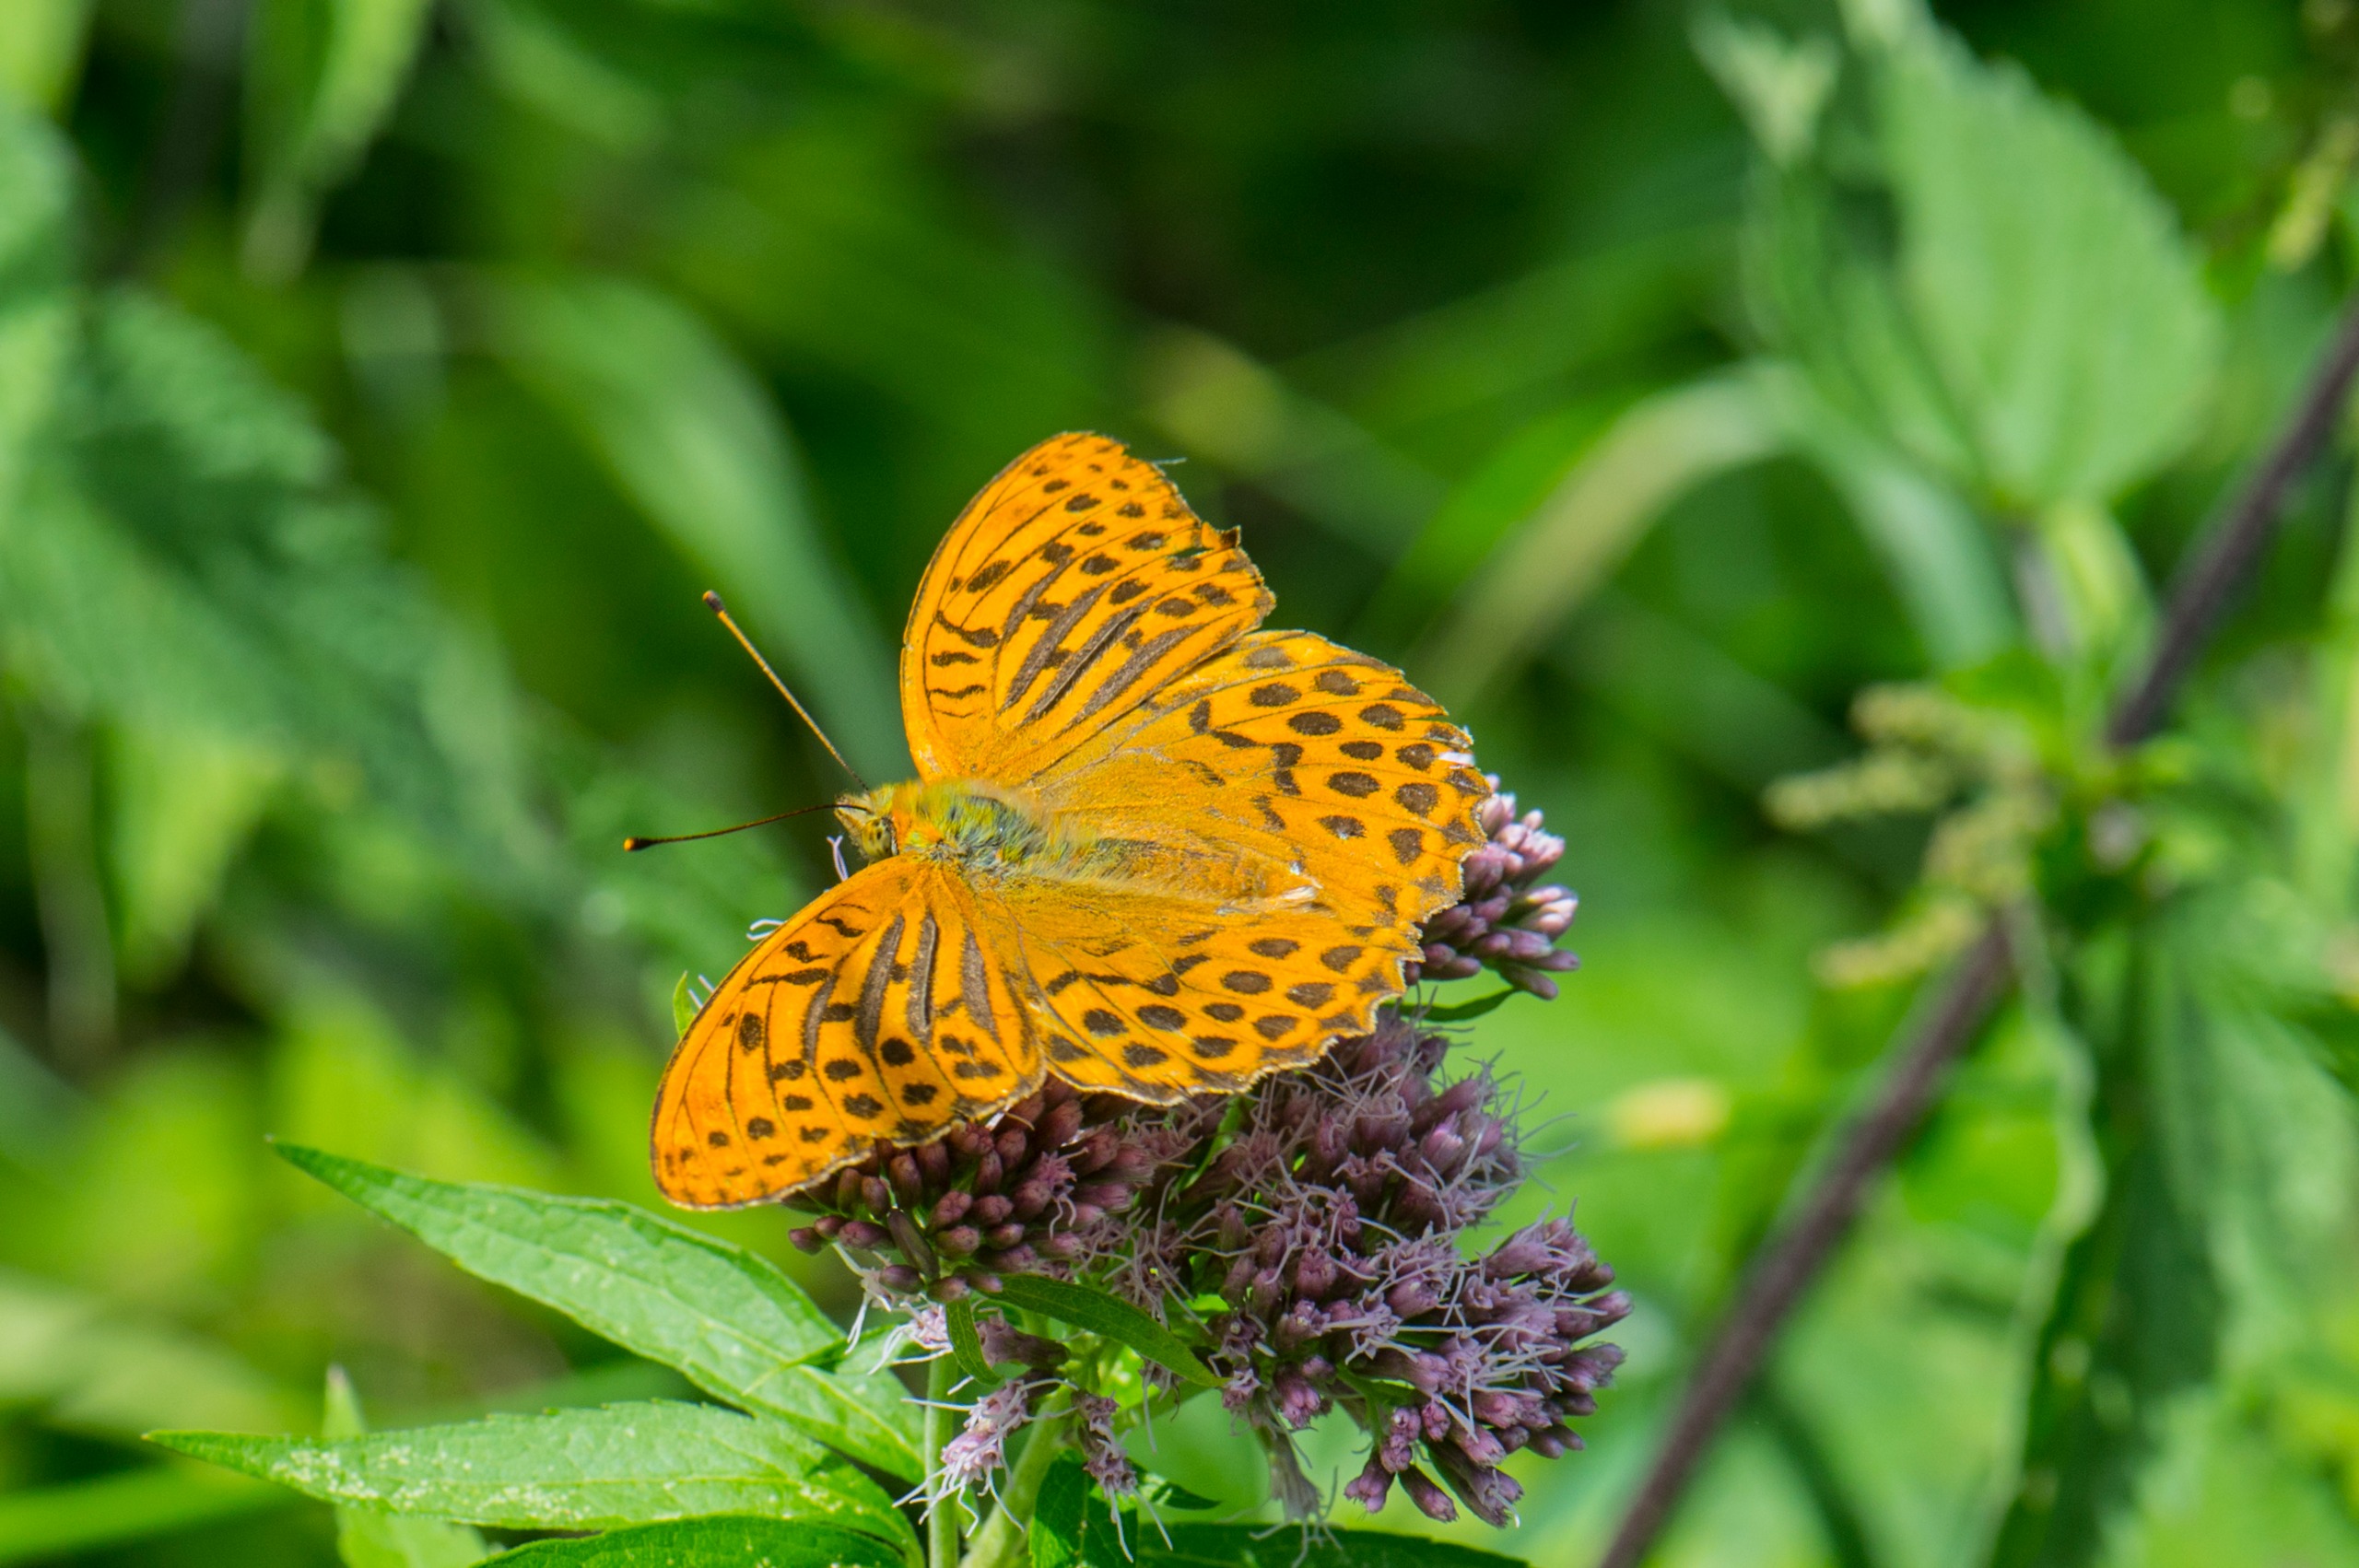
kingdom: Animalia
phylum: Arthropoda
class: Insecta
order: Lepidoptera
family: Nymphalidae
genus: Argynnis
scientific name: Argynnis paphia
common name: Kejserkåbe
